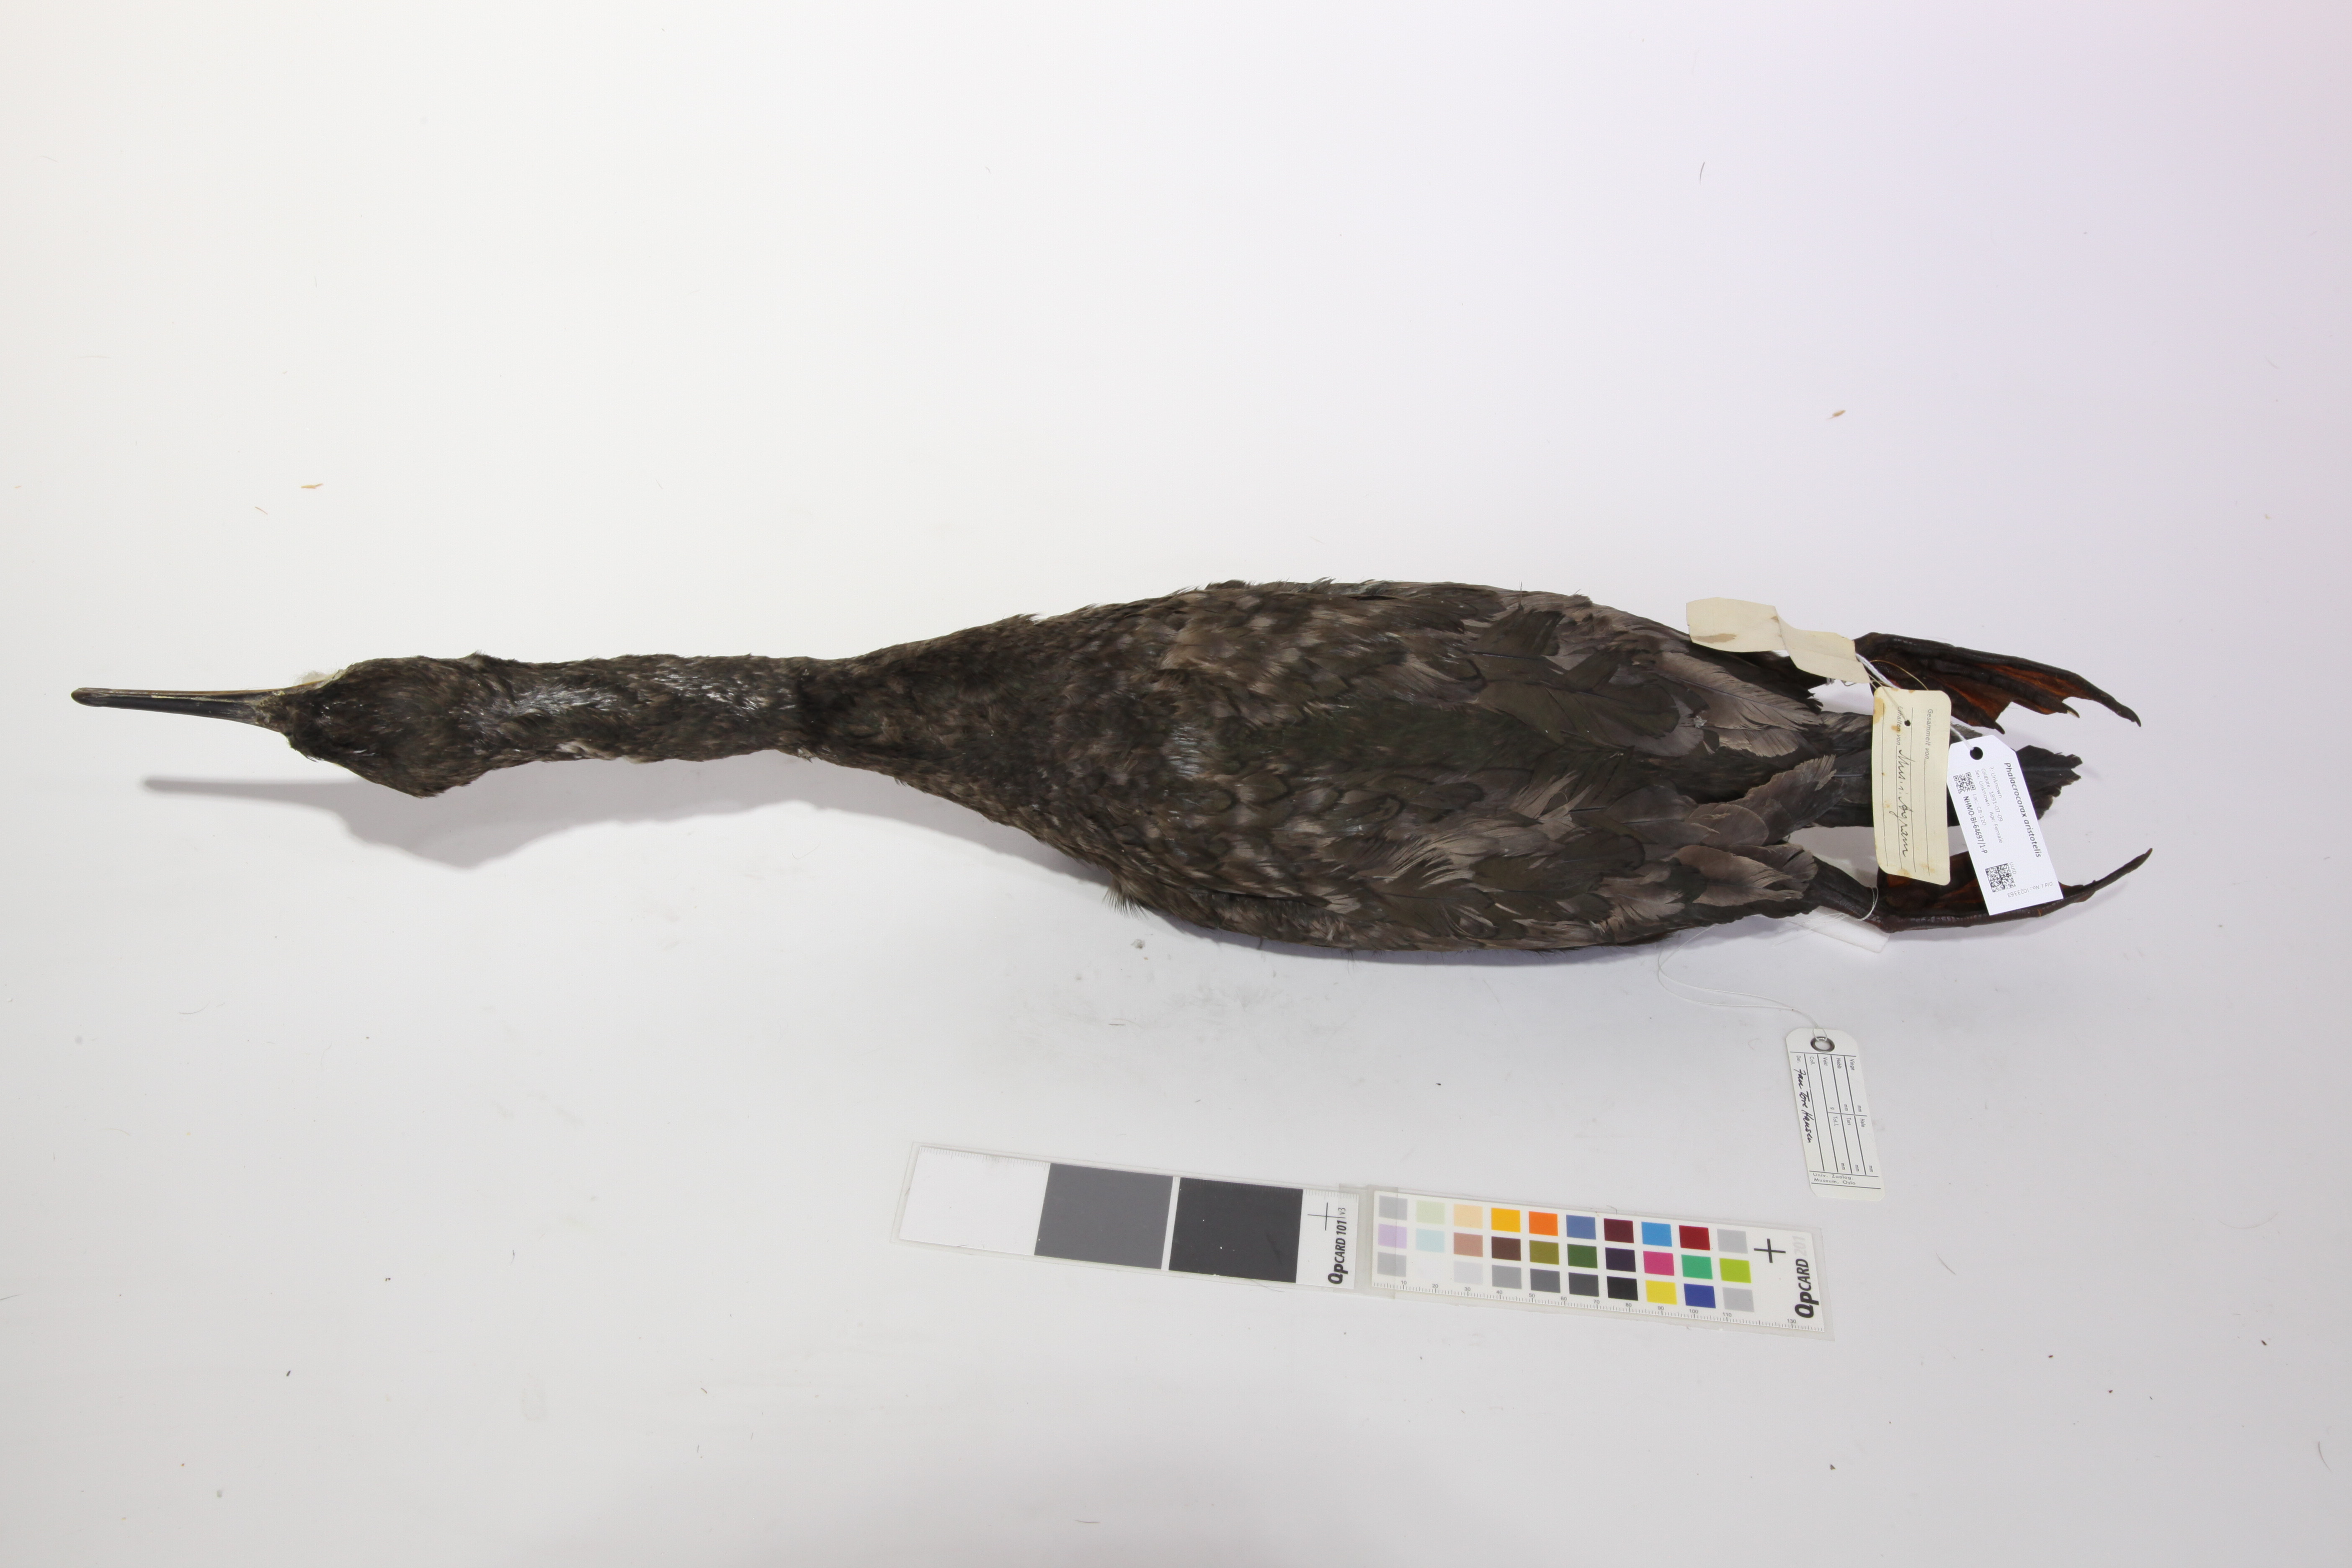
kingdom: Animalia
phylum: Chordata
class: Aves
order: Suliformes
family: Phalacrocoracidae
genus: Phalacrocorax
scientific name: Phalacrocorax aristotelis
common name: European shag
